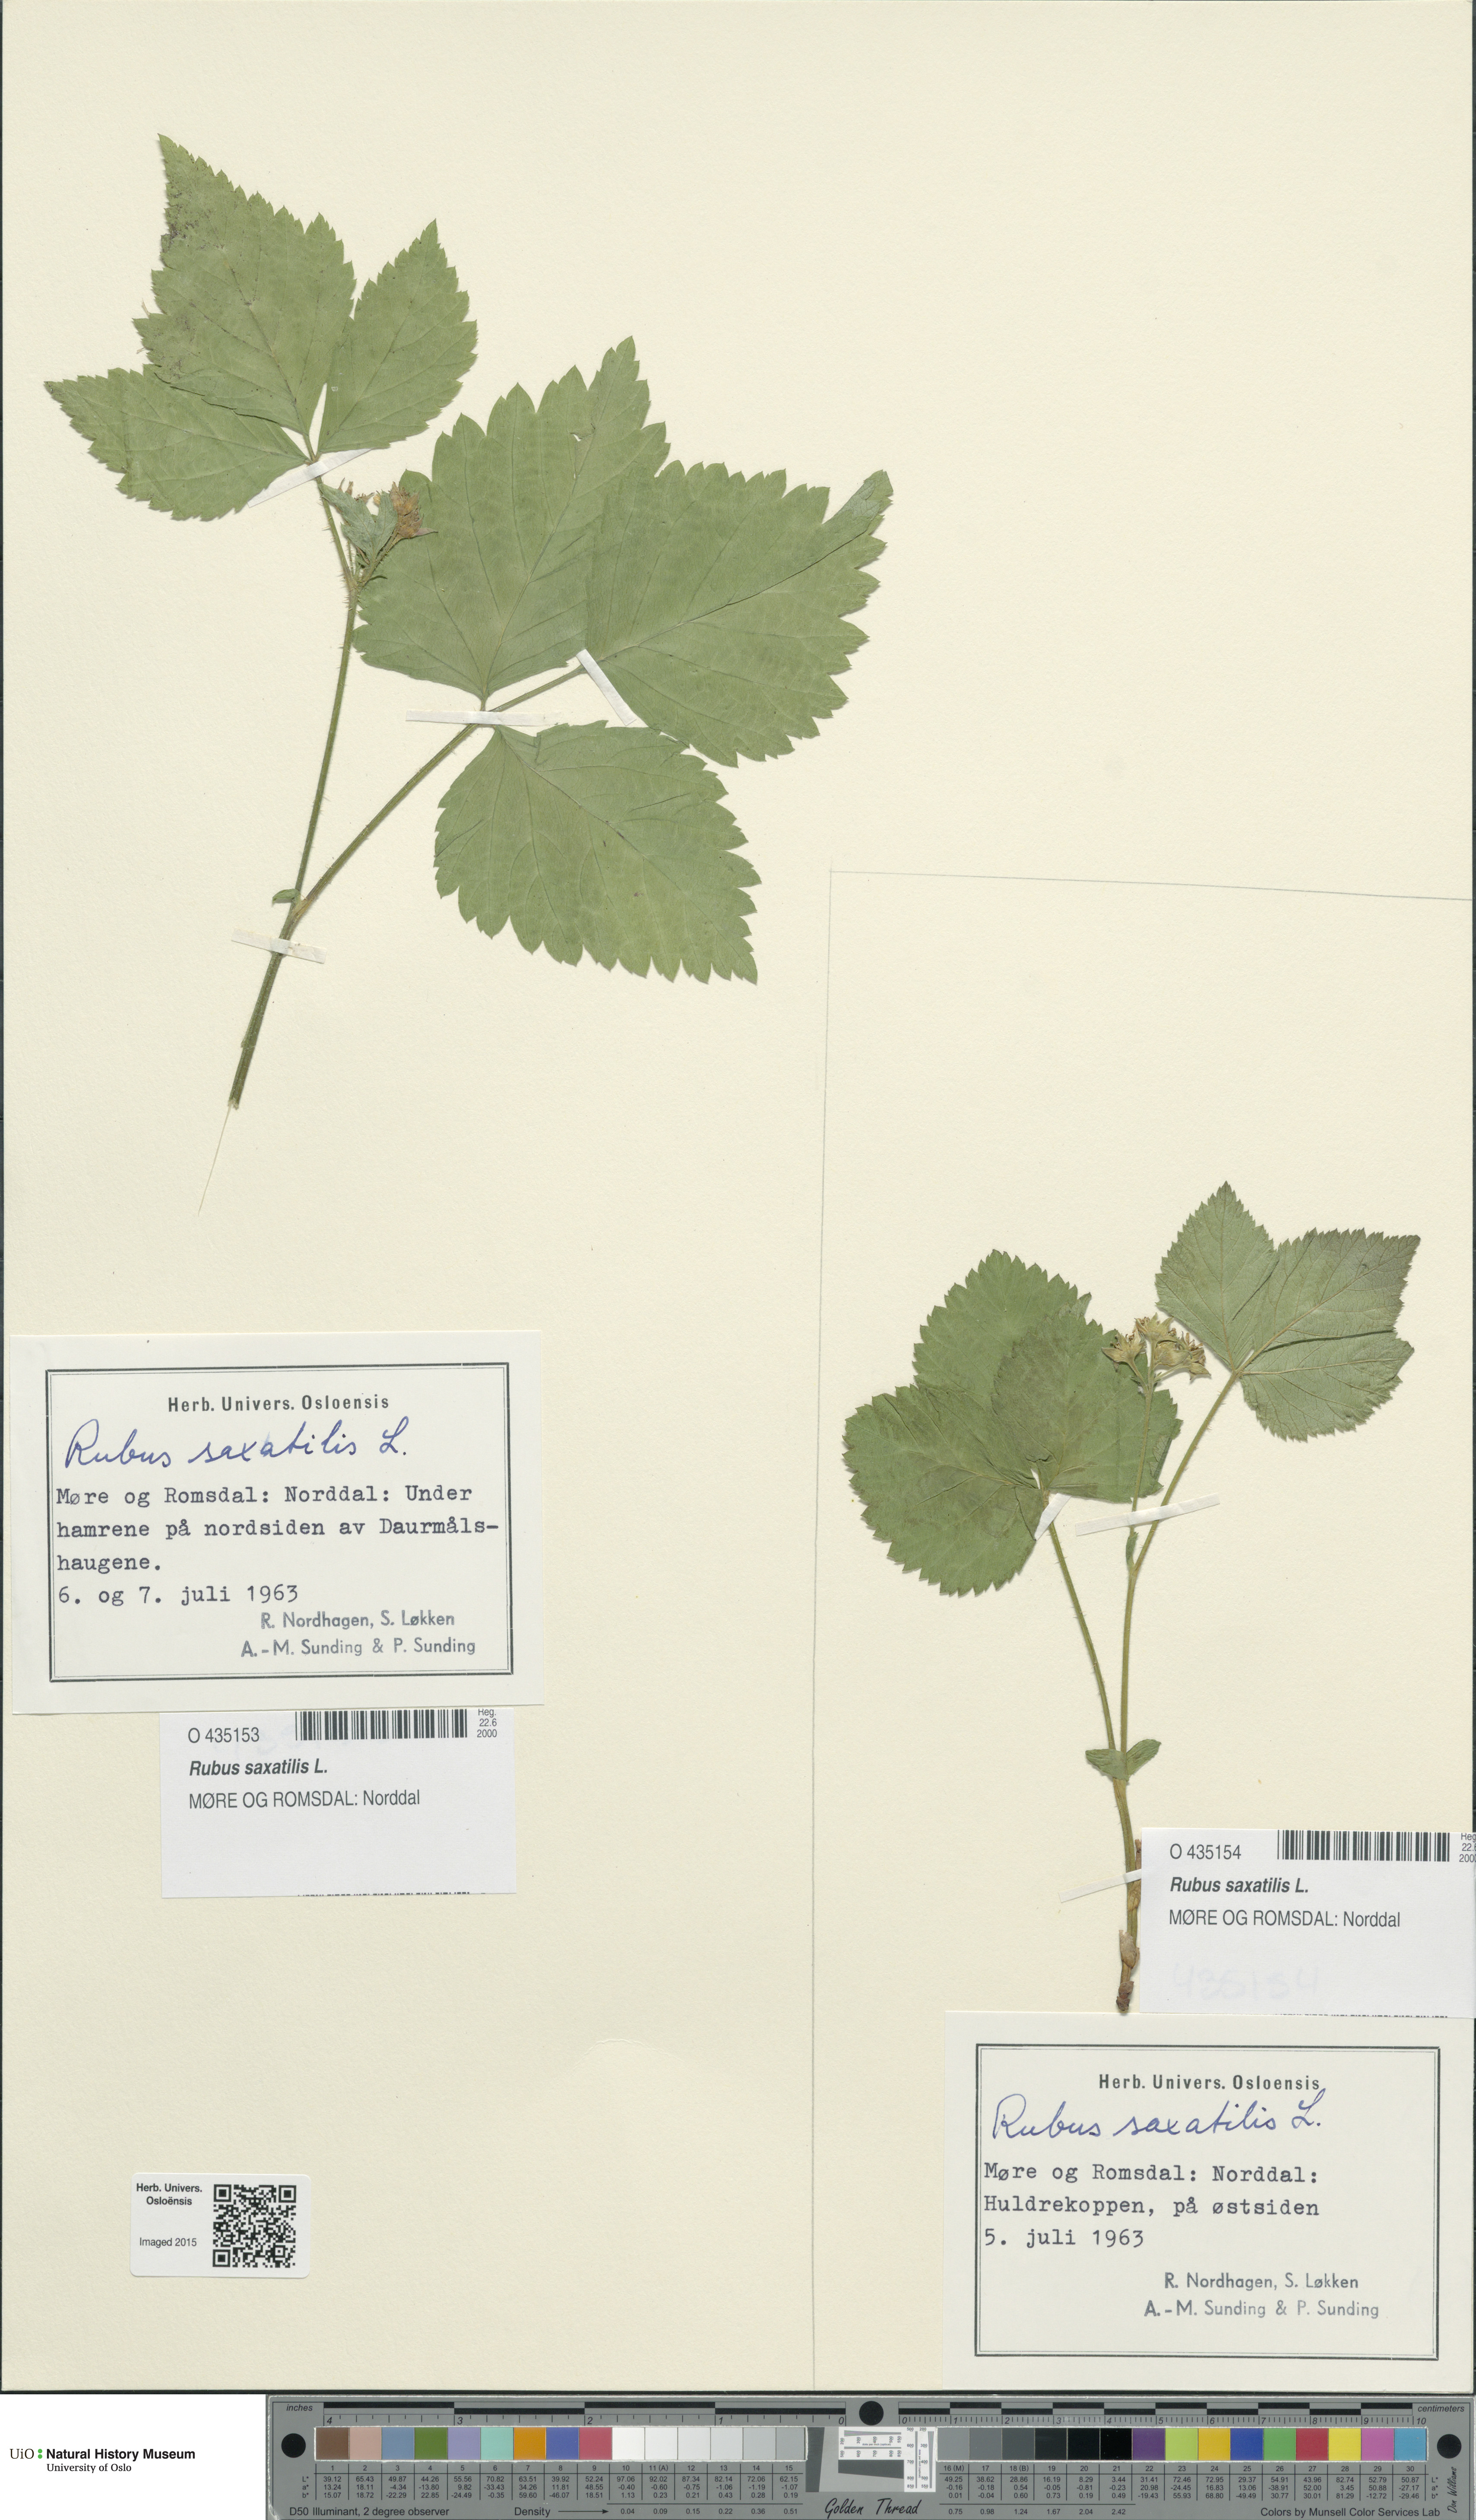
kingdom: Plantae
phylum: Tracheophyta
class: Magnoliopsida
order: Rosales
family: Rosaceae
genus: Rubus
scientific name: Rubus saxatilis
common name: Stone bramble
